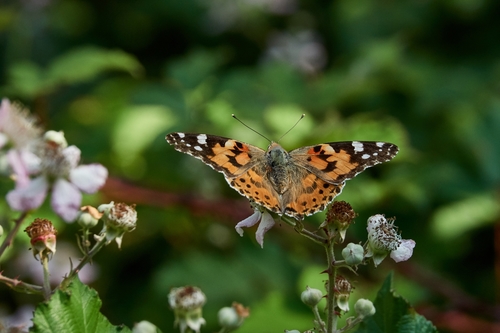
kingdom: Animalia
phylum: Arthropoda
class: Insecta
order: Lepidoptera
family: Nymphalidae
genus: Vanessa
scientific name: Vanessa cardui
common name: Painted lady
